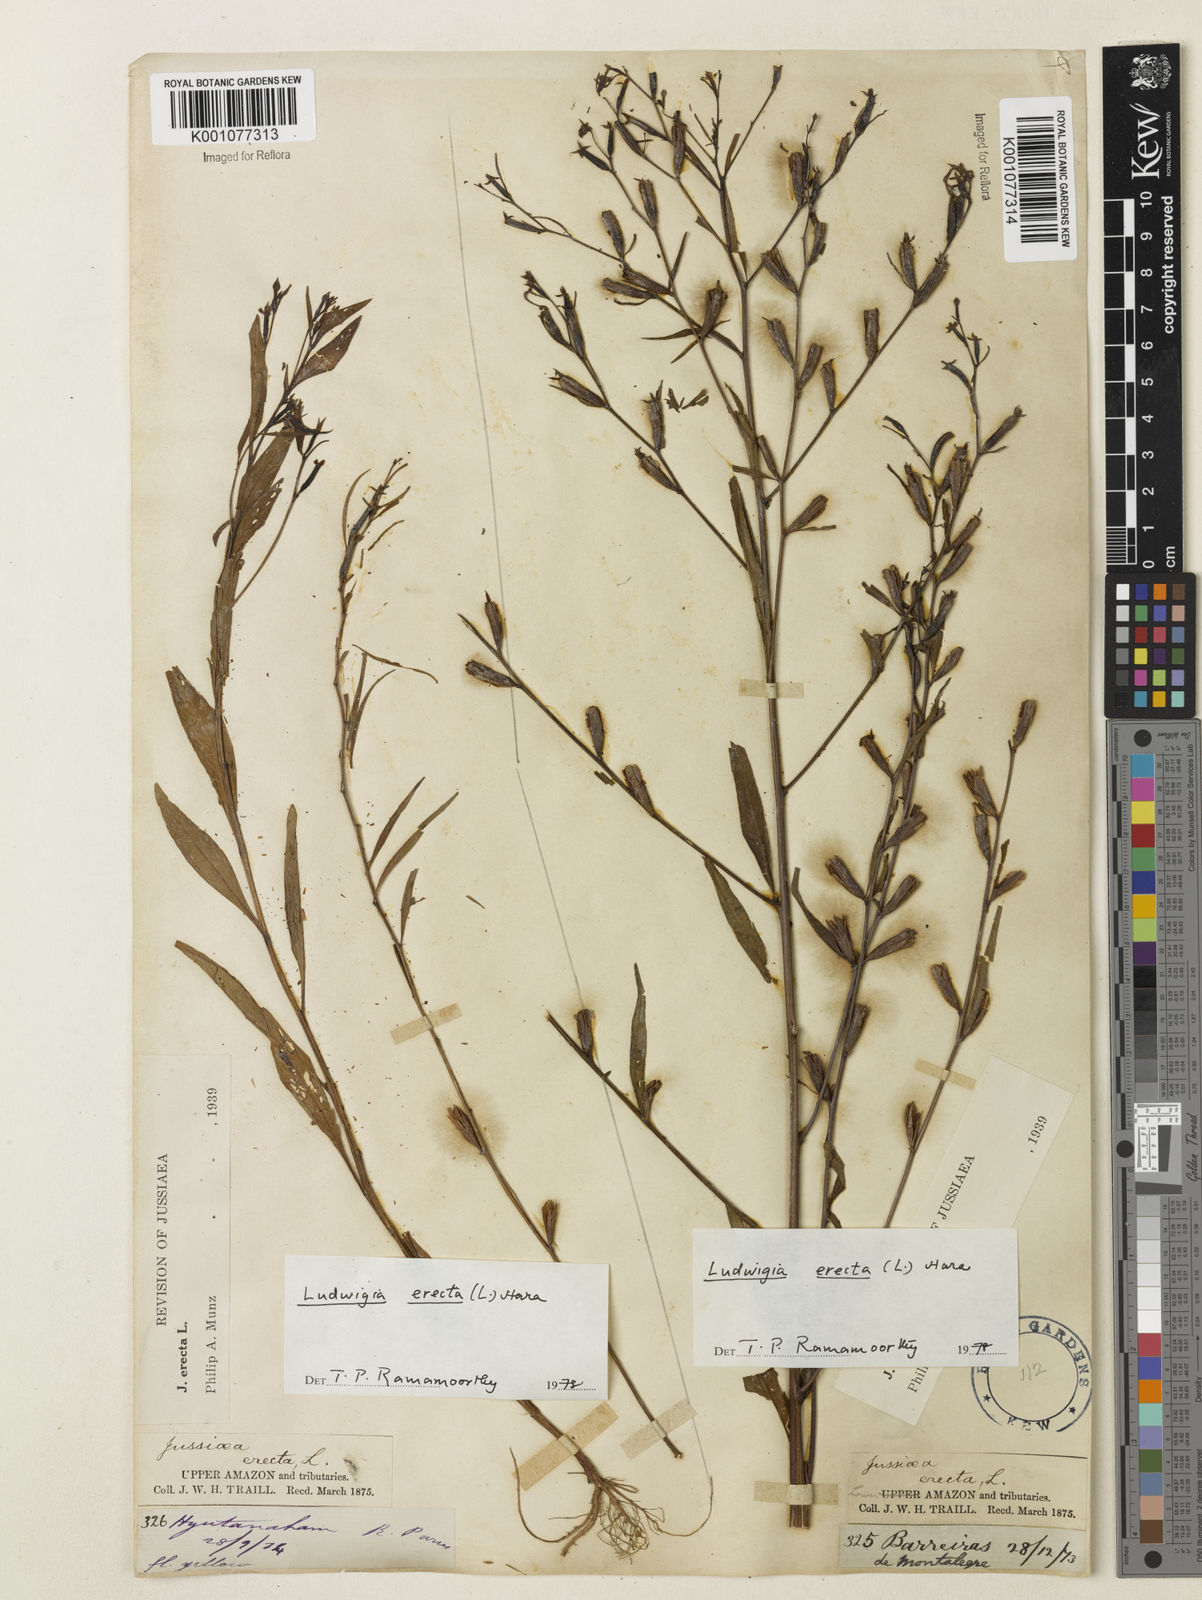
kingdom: Plantae
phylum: Tracheophyta
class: Magnoliopsida
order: Myrtales
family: Onagraceae
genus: Ludwigia
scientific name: Ludwigia erecta
